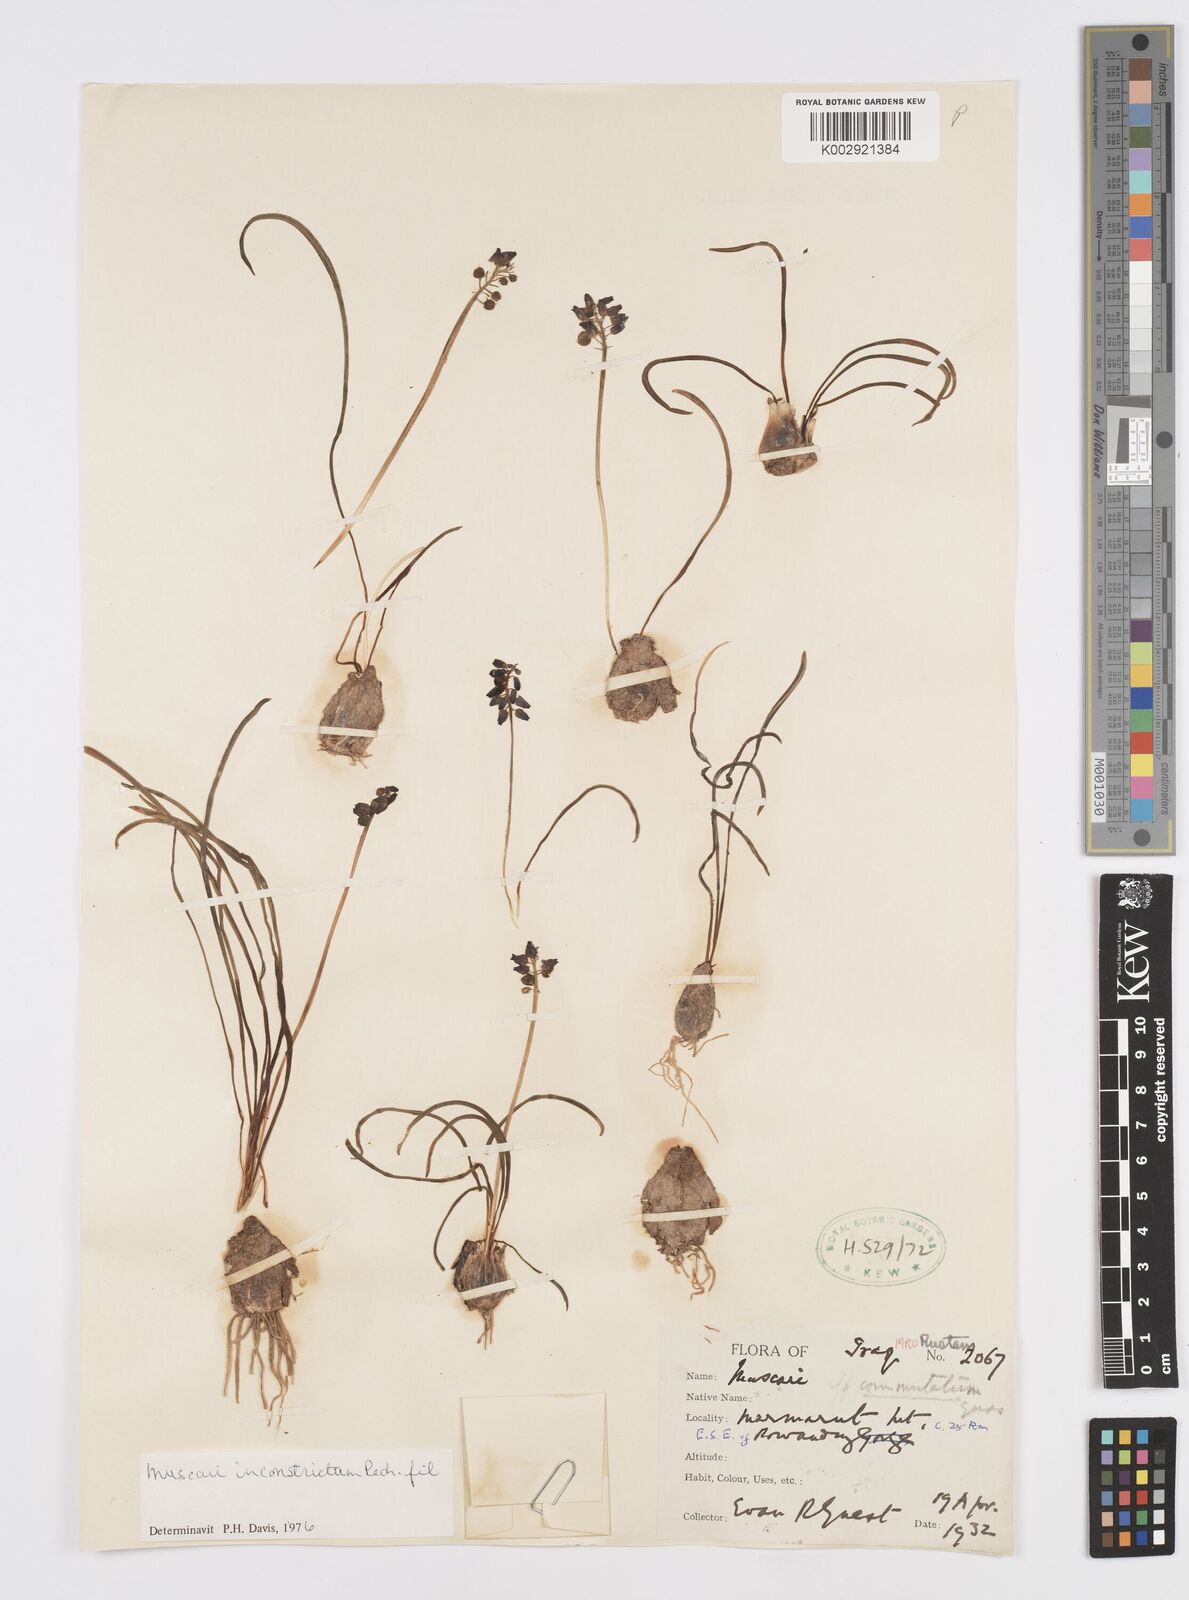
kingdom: Plantae
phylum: Tracheophyta
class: Liliopsida
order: Asparagales
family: Asparagaceae
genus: Muscari
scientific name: Muscari inconstrictum
